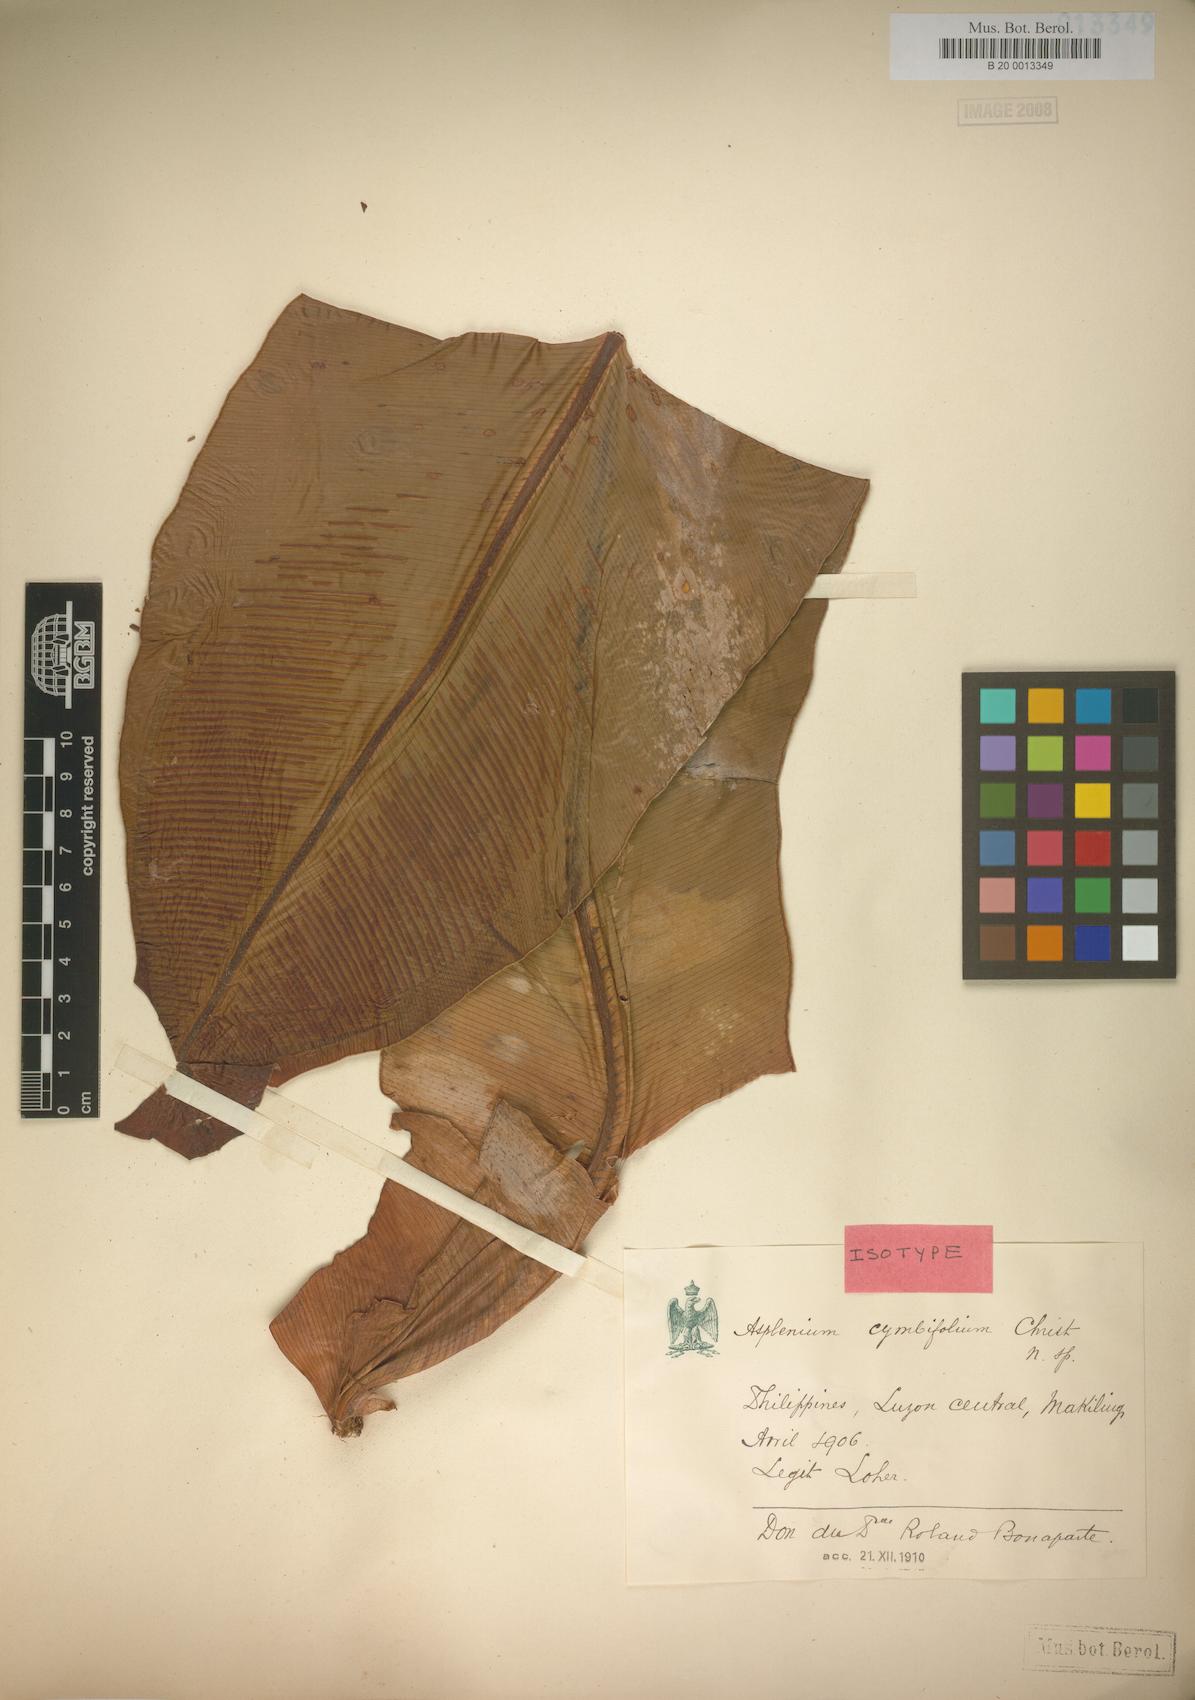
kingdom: Plantae
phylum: Tracheophyta
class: Polypodiopsida
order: Polypodiales
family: Aspleniaceae
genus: Asplenium
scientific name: Asplenium cymbifolium
